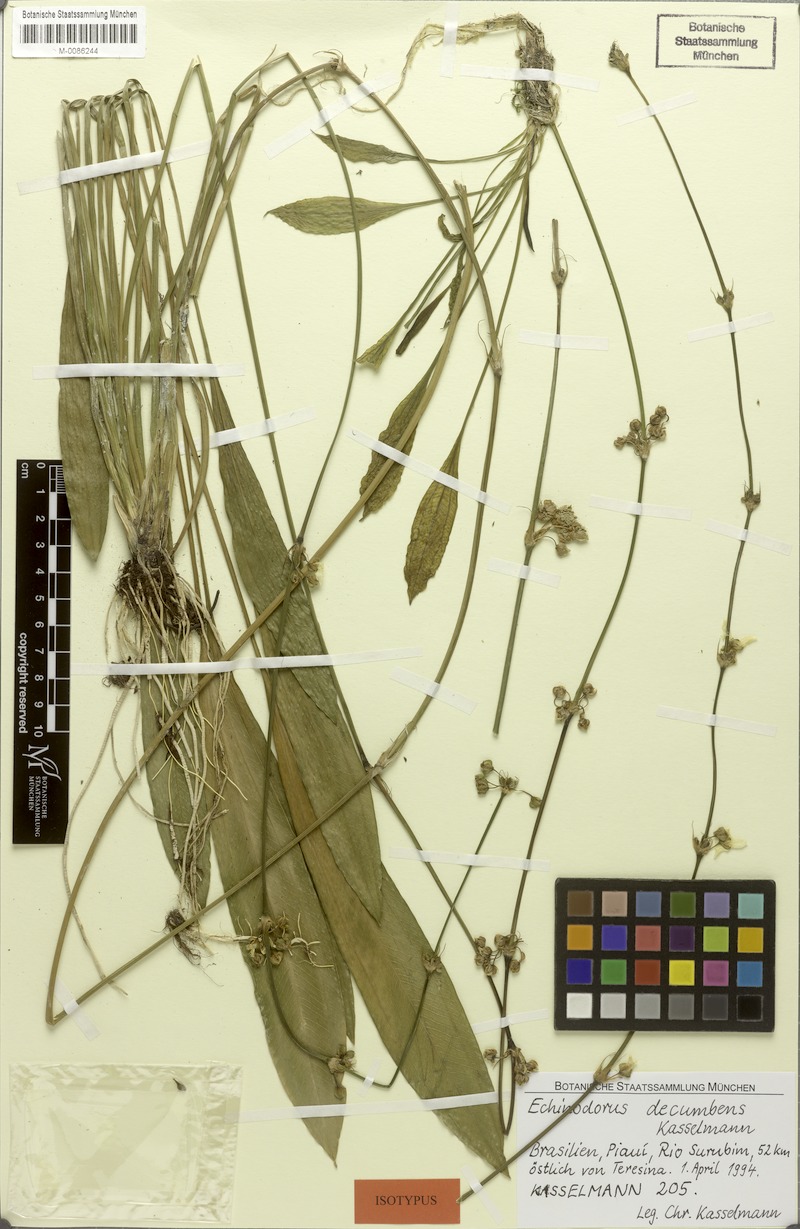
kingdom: Plantae
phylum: Tracheophyta
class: Liliopsida
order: Alismatales
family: Alismataceae
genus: Aquarius
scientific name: Aquarius decumbens
